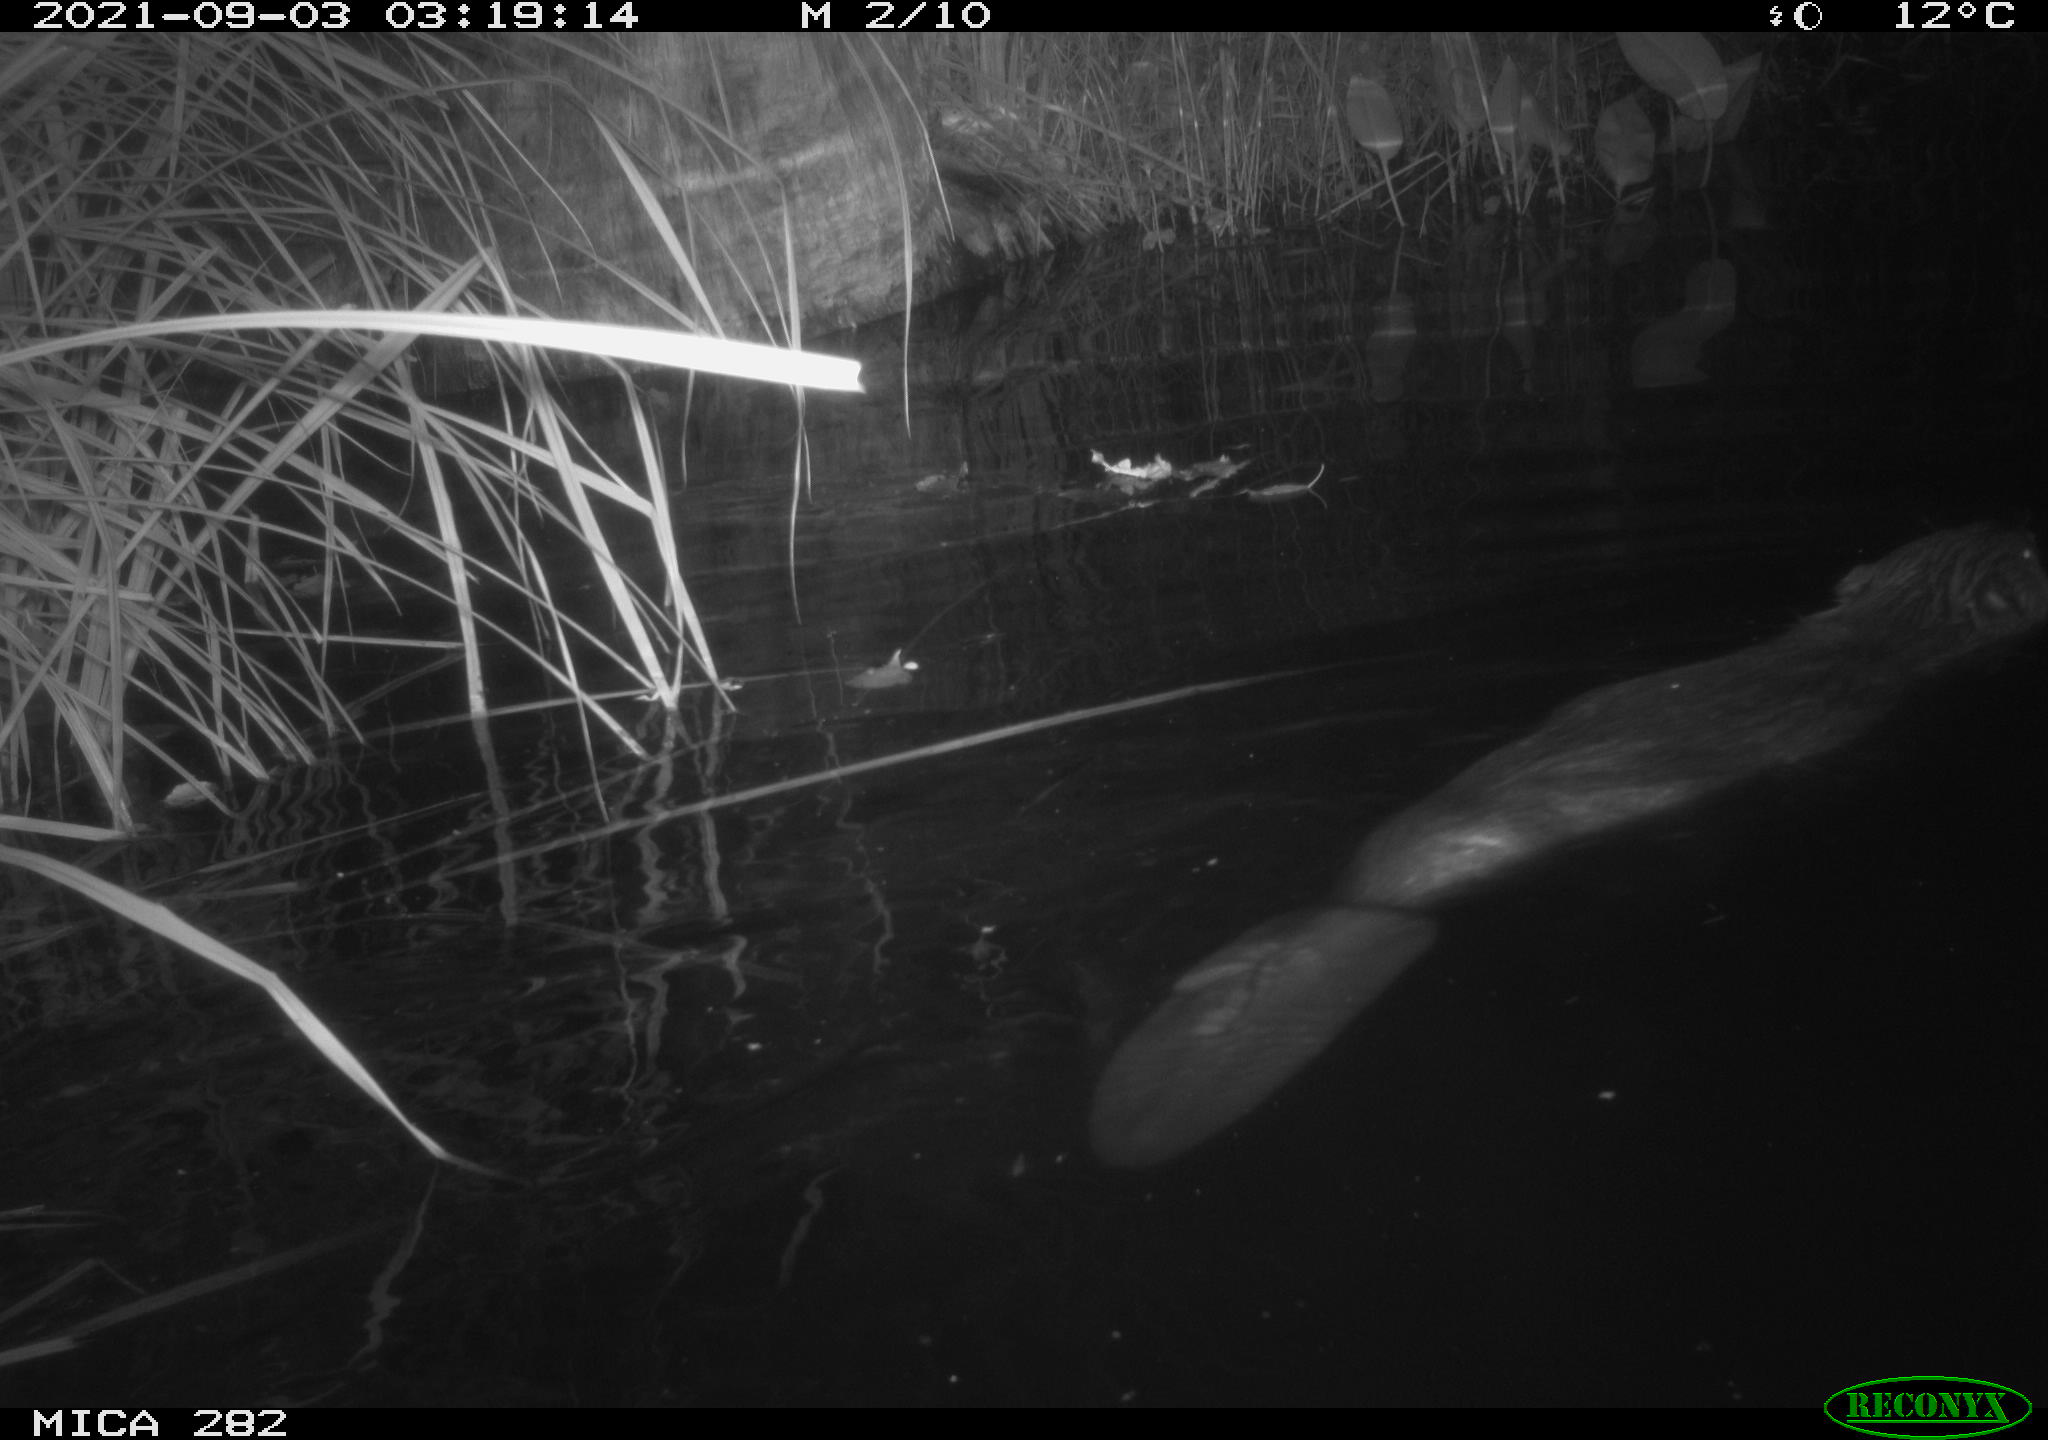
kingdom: Animalia
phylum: Chordata
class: Mammalia
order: Rodentia
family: Castoridae
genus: Castor
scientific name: Castor fiber
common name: Eurasian beaver
